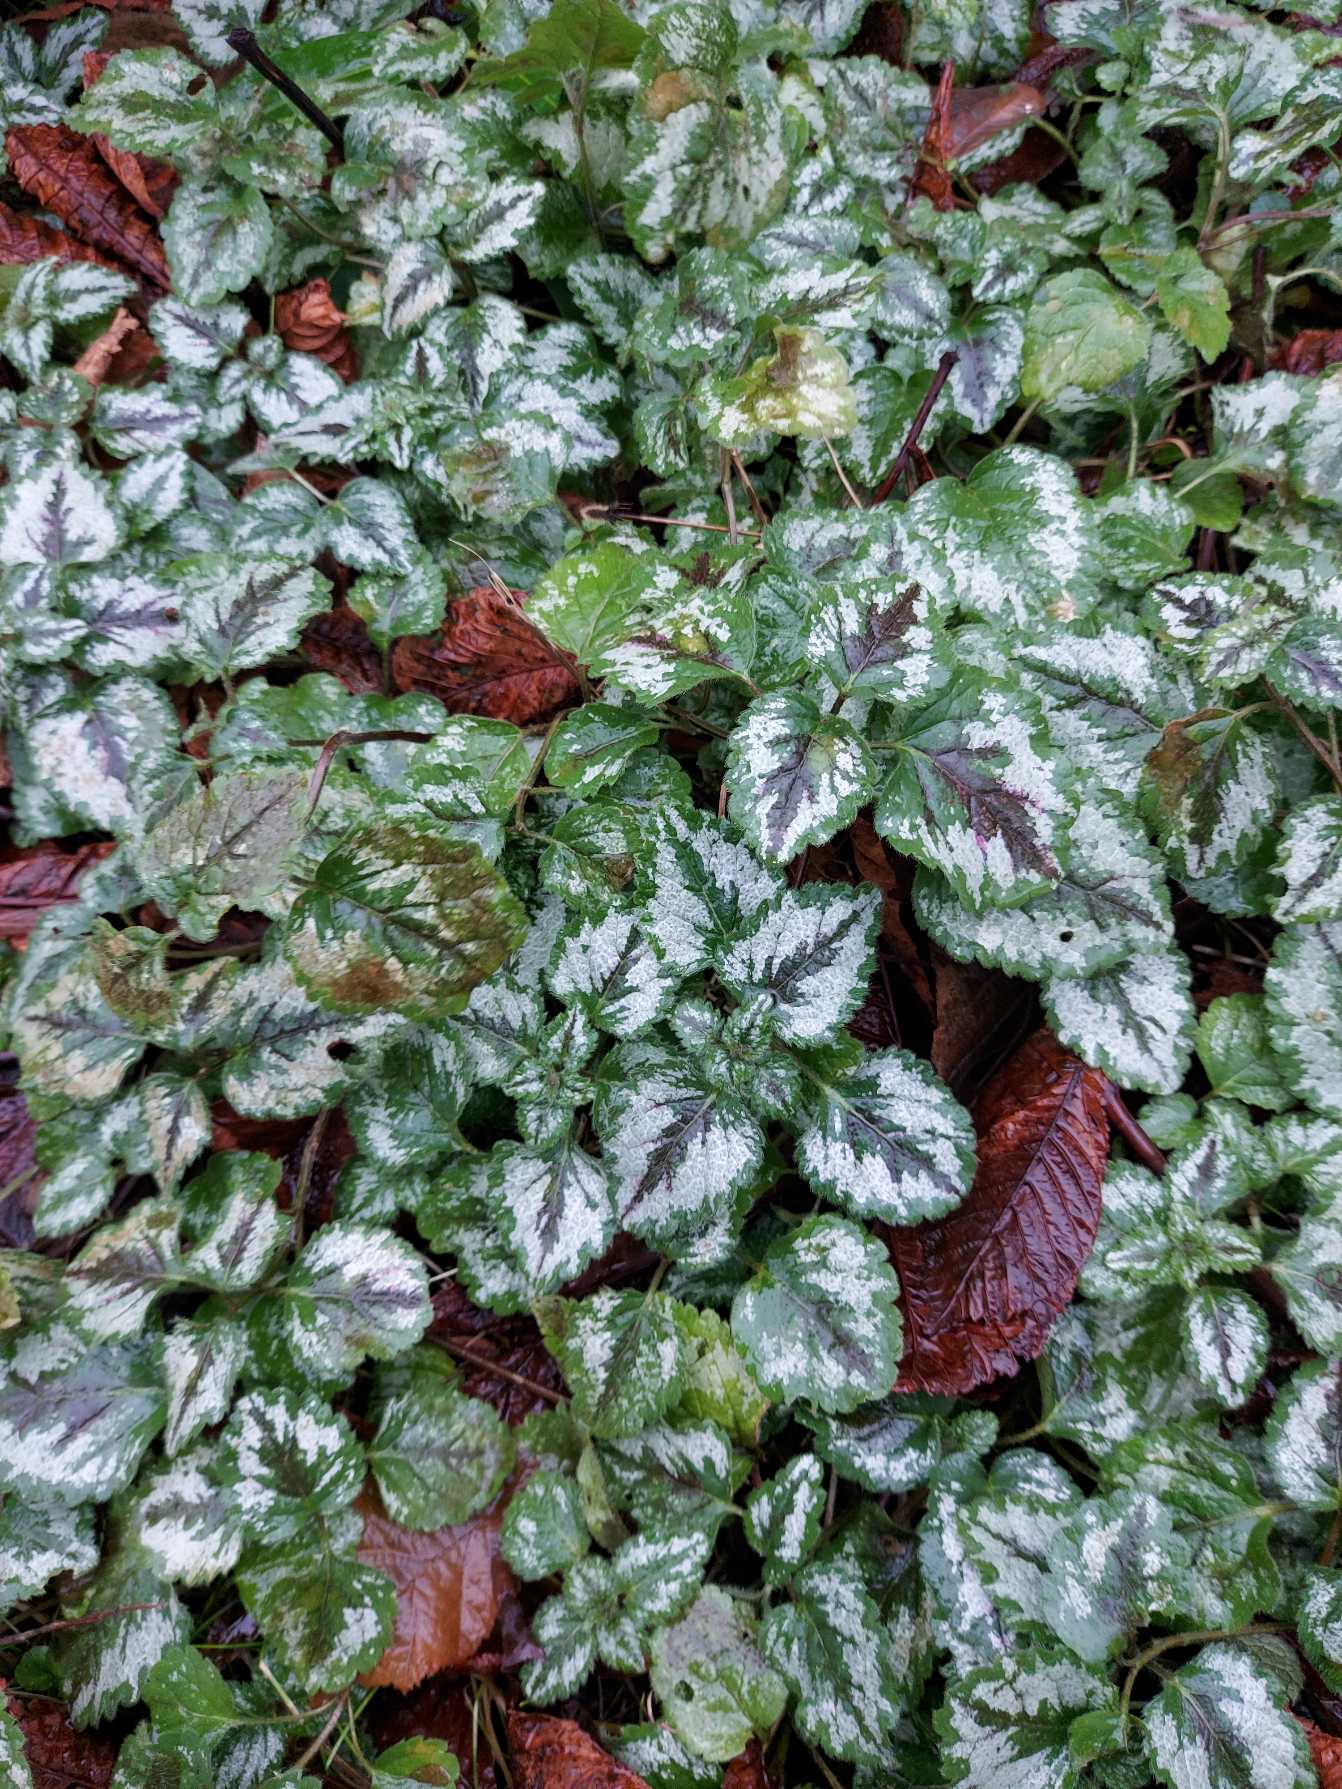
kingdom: Plantae
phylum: Tracheophyta
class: Magnoliopsida
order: Lamiales
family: Lamiaceae
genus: Lamium
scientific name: Lamium galeobdolon
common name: Have-guldnælde
